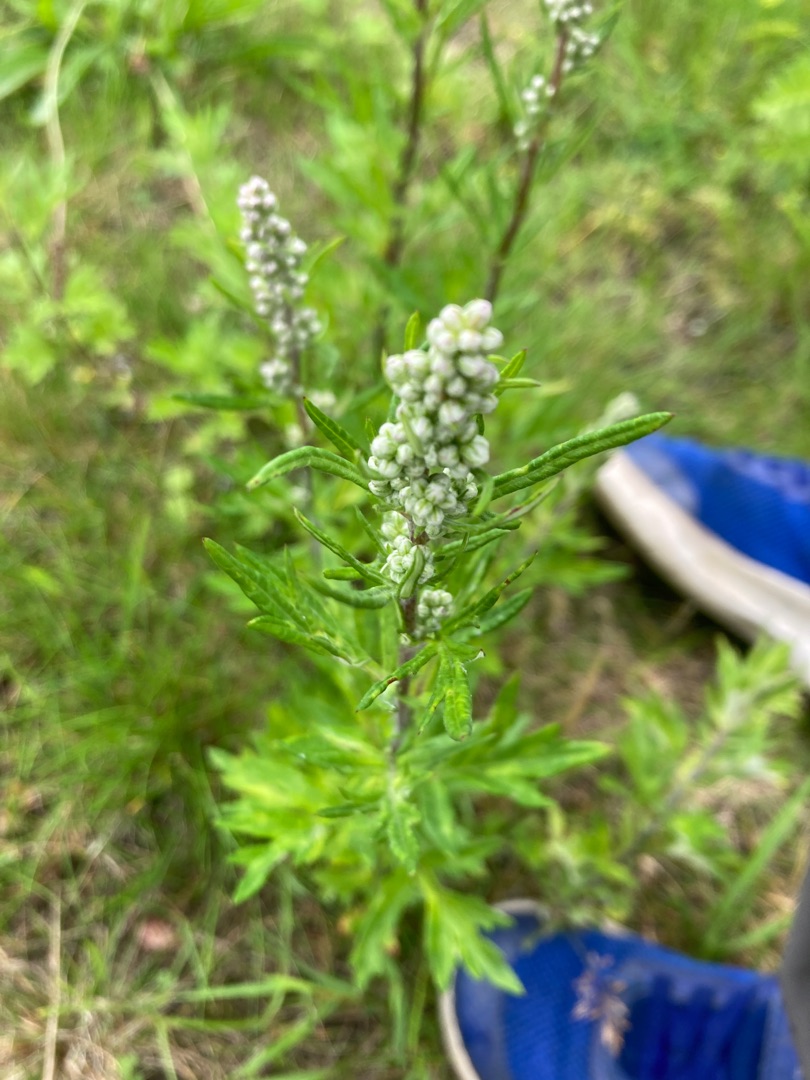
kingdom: Plantae
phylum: Tracheophyta
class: Magnoliopsida
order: Asterales
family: Asteraceae
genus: Artemisia
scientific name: Artemisia vulgaris
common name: Grå-bynke
